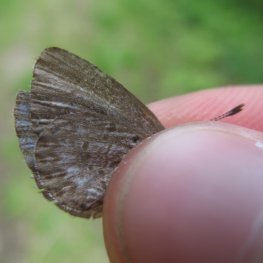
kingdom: Animalia
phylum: Arthropoda
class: Insecta
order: Lepidoptera
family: Lycaenidae
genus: Celastrina
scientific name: Celastrina lucia
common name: Northern Spring Azure
